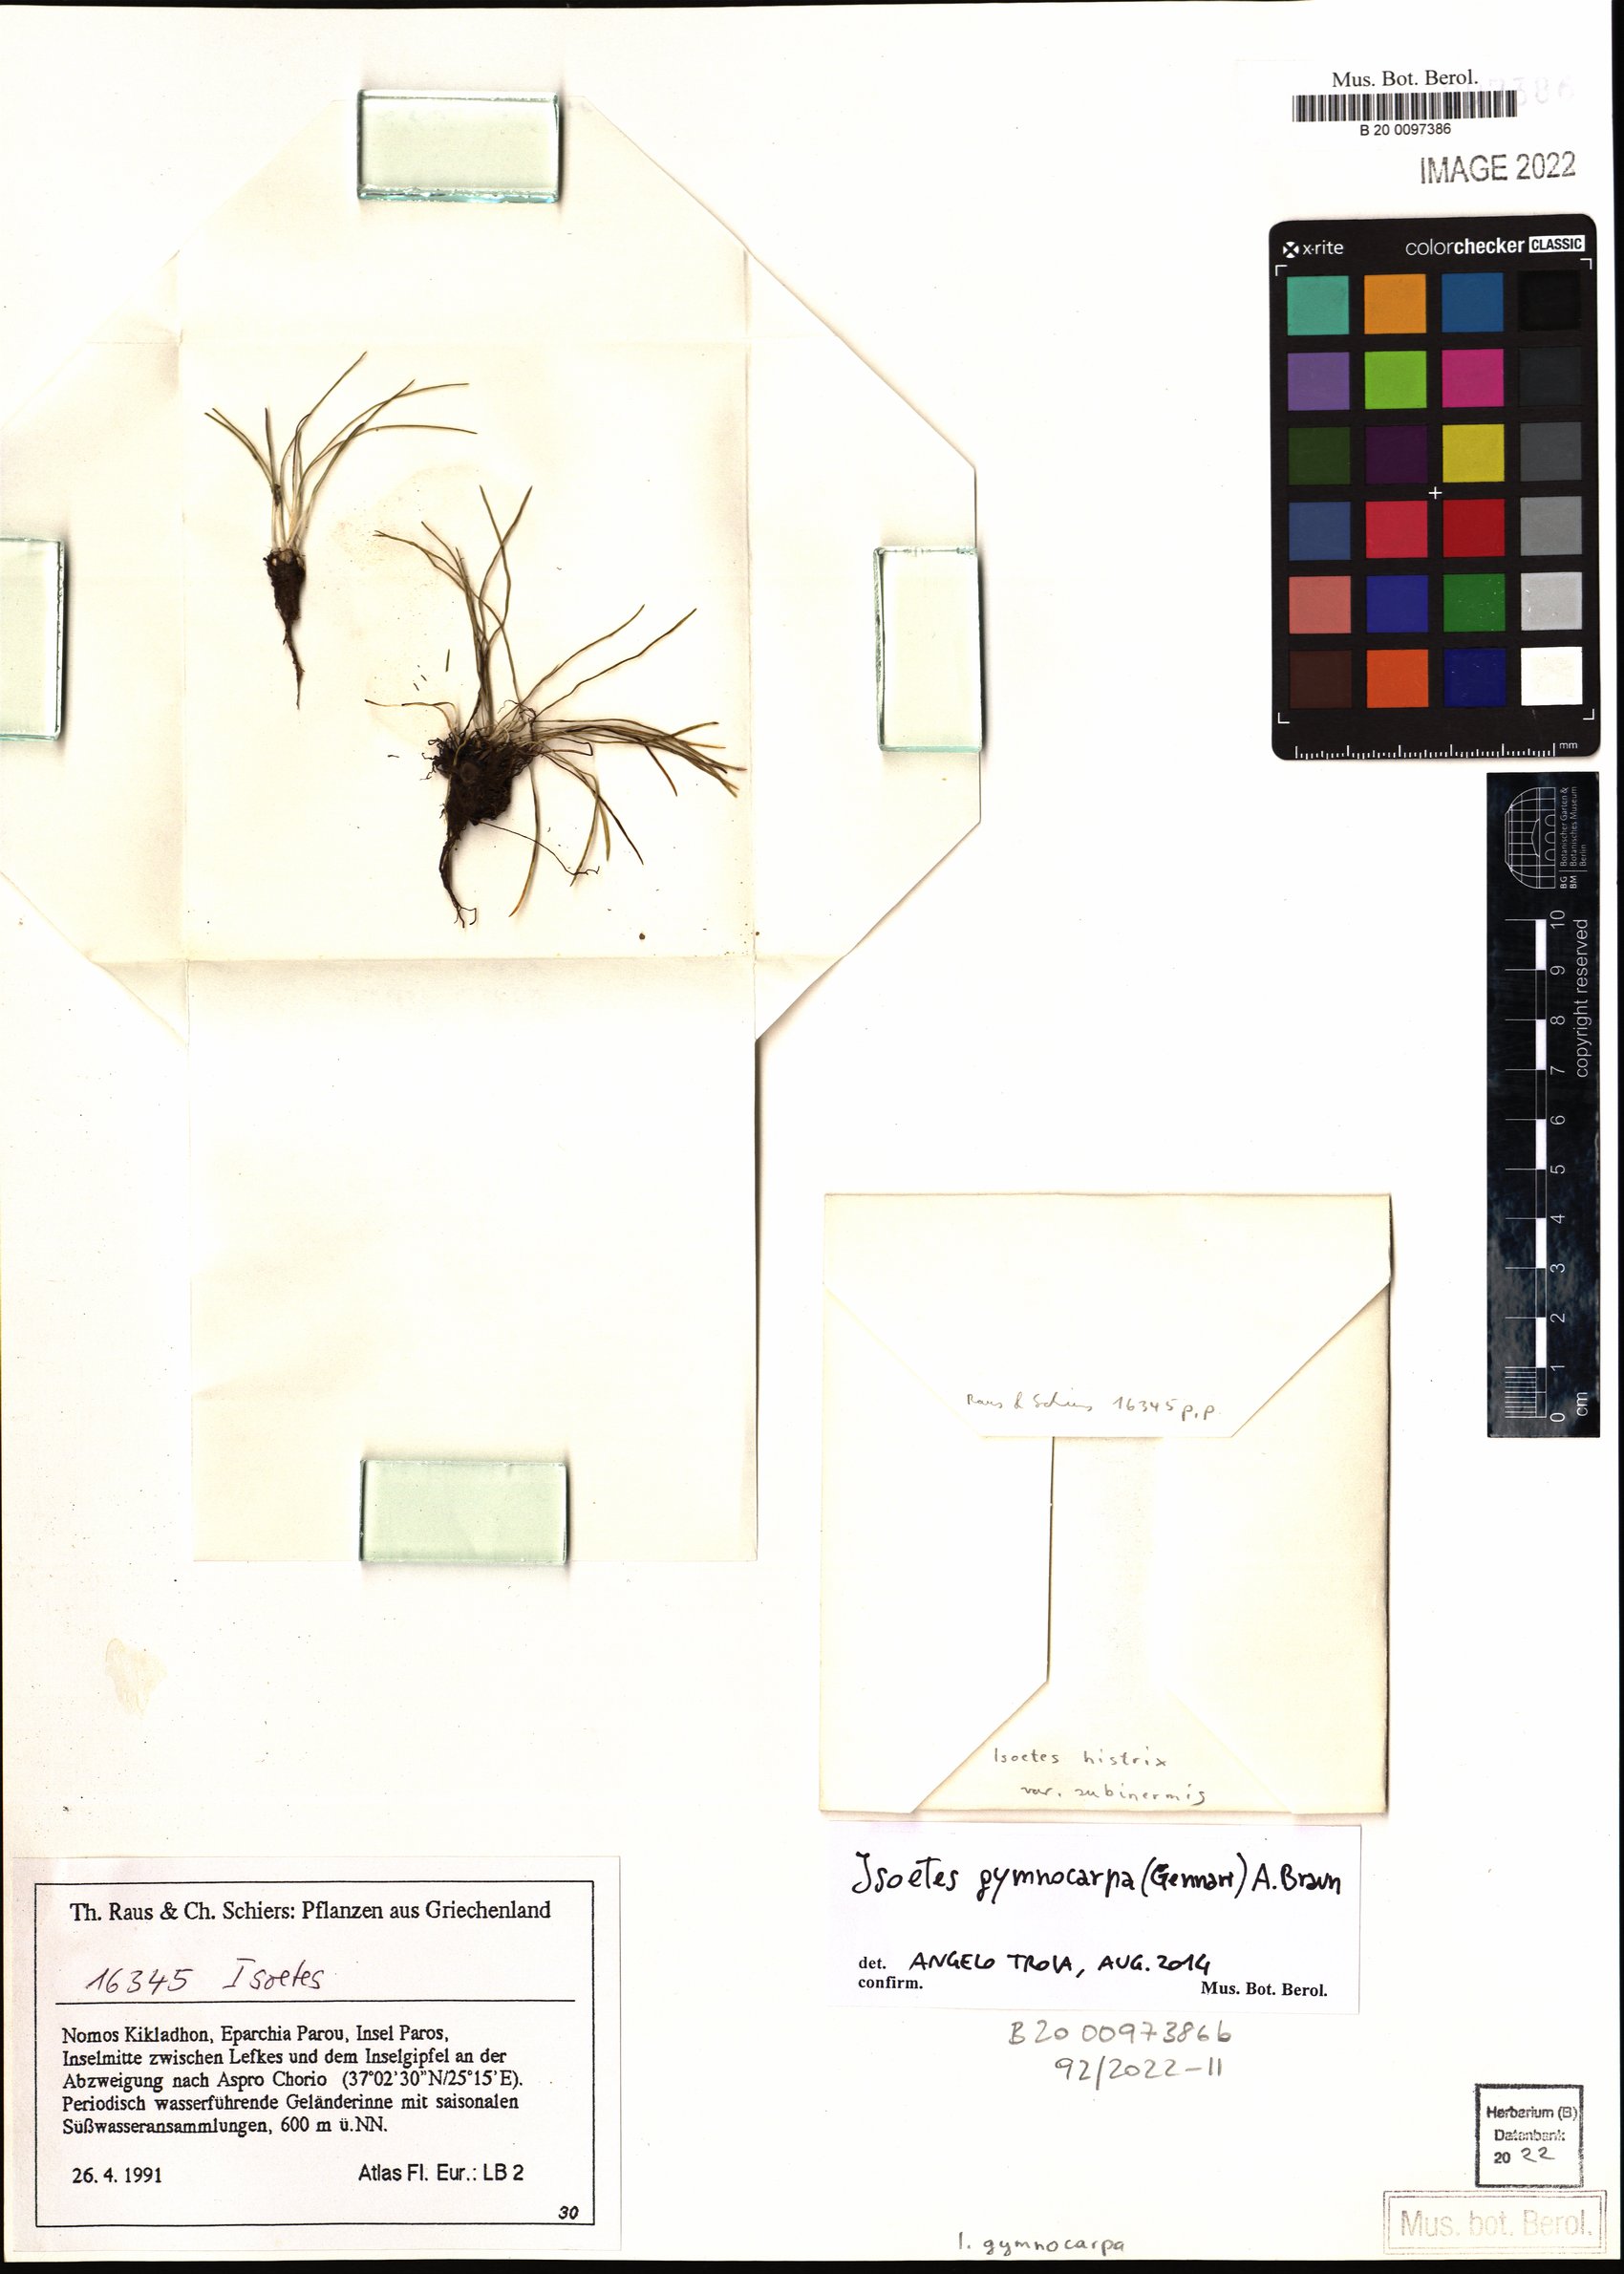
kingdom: Plantae
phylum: Tracheophyta
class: Lycopodiopsida
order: Isoetales
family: Isoetaceae
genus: Isoetes
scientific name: Isoetes histrix
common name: Land quillwort
